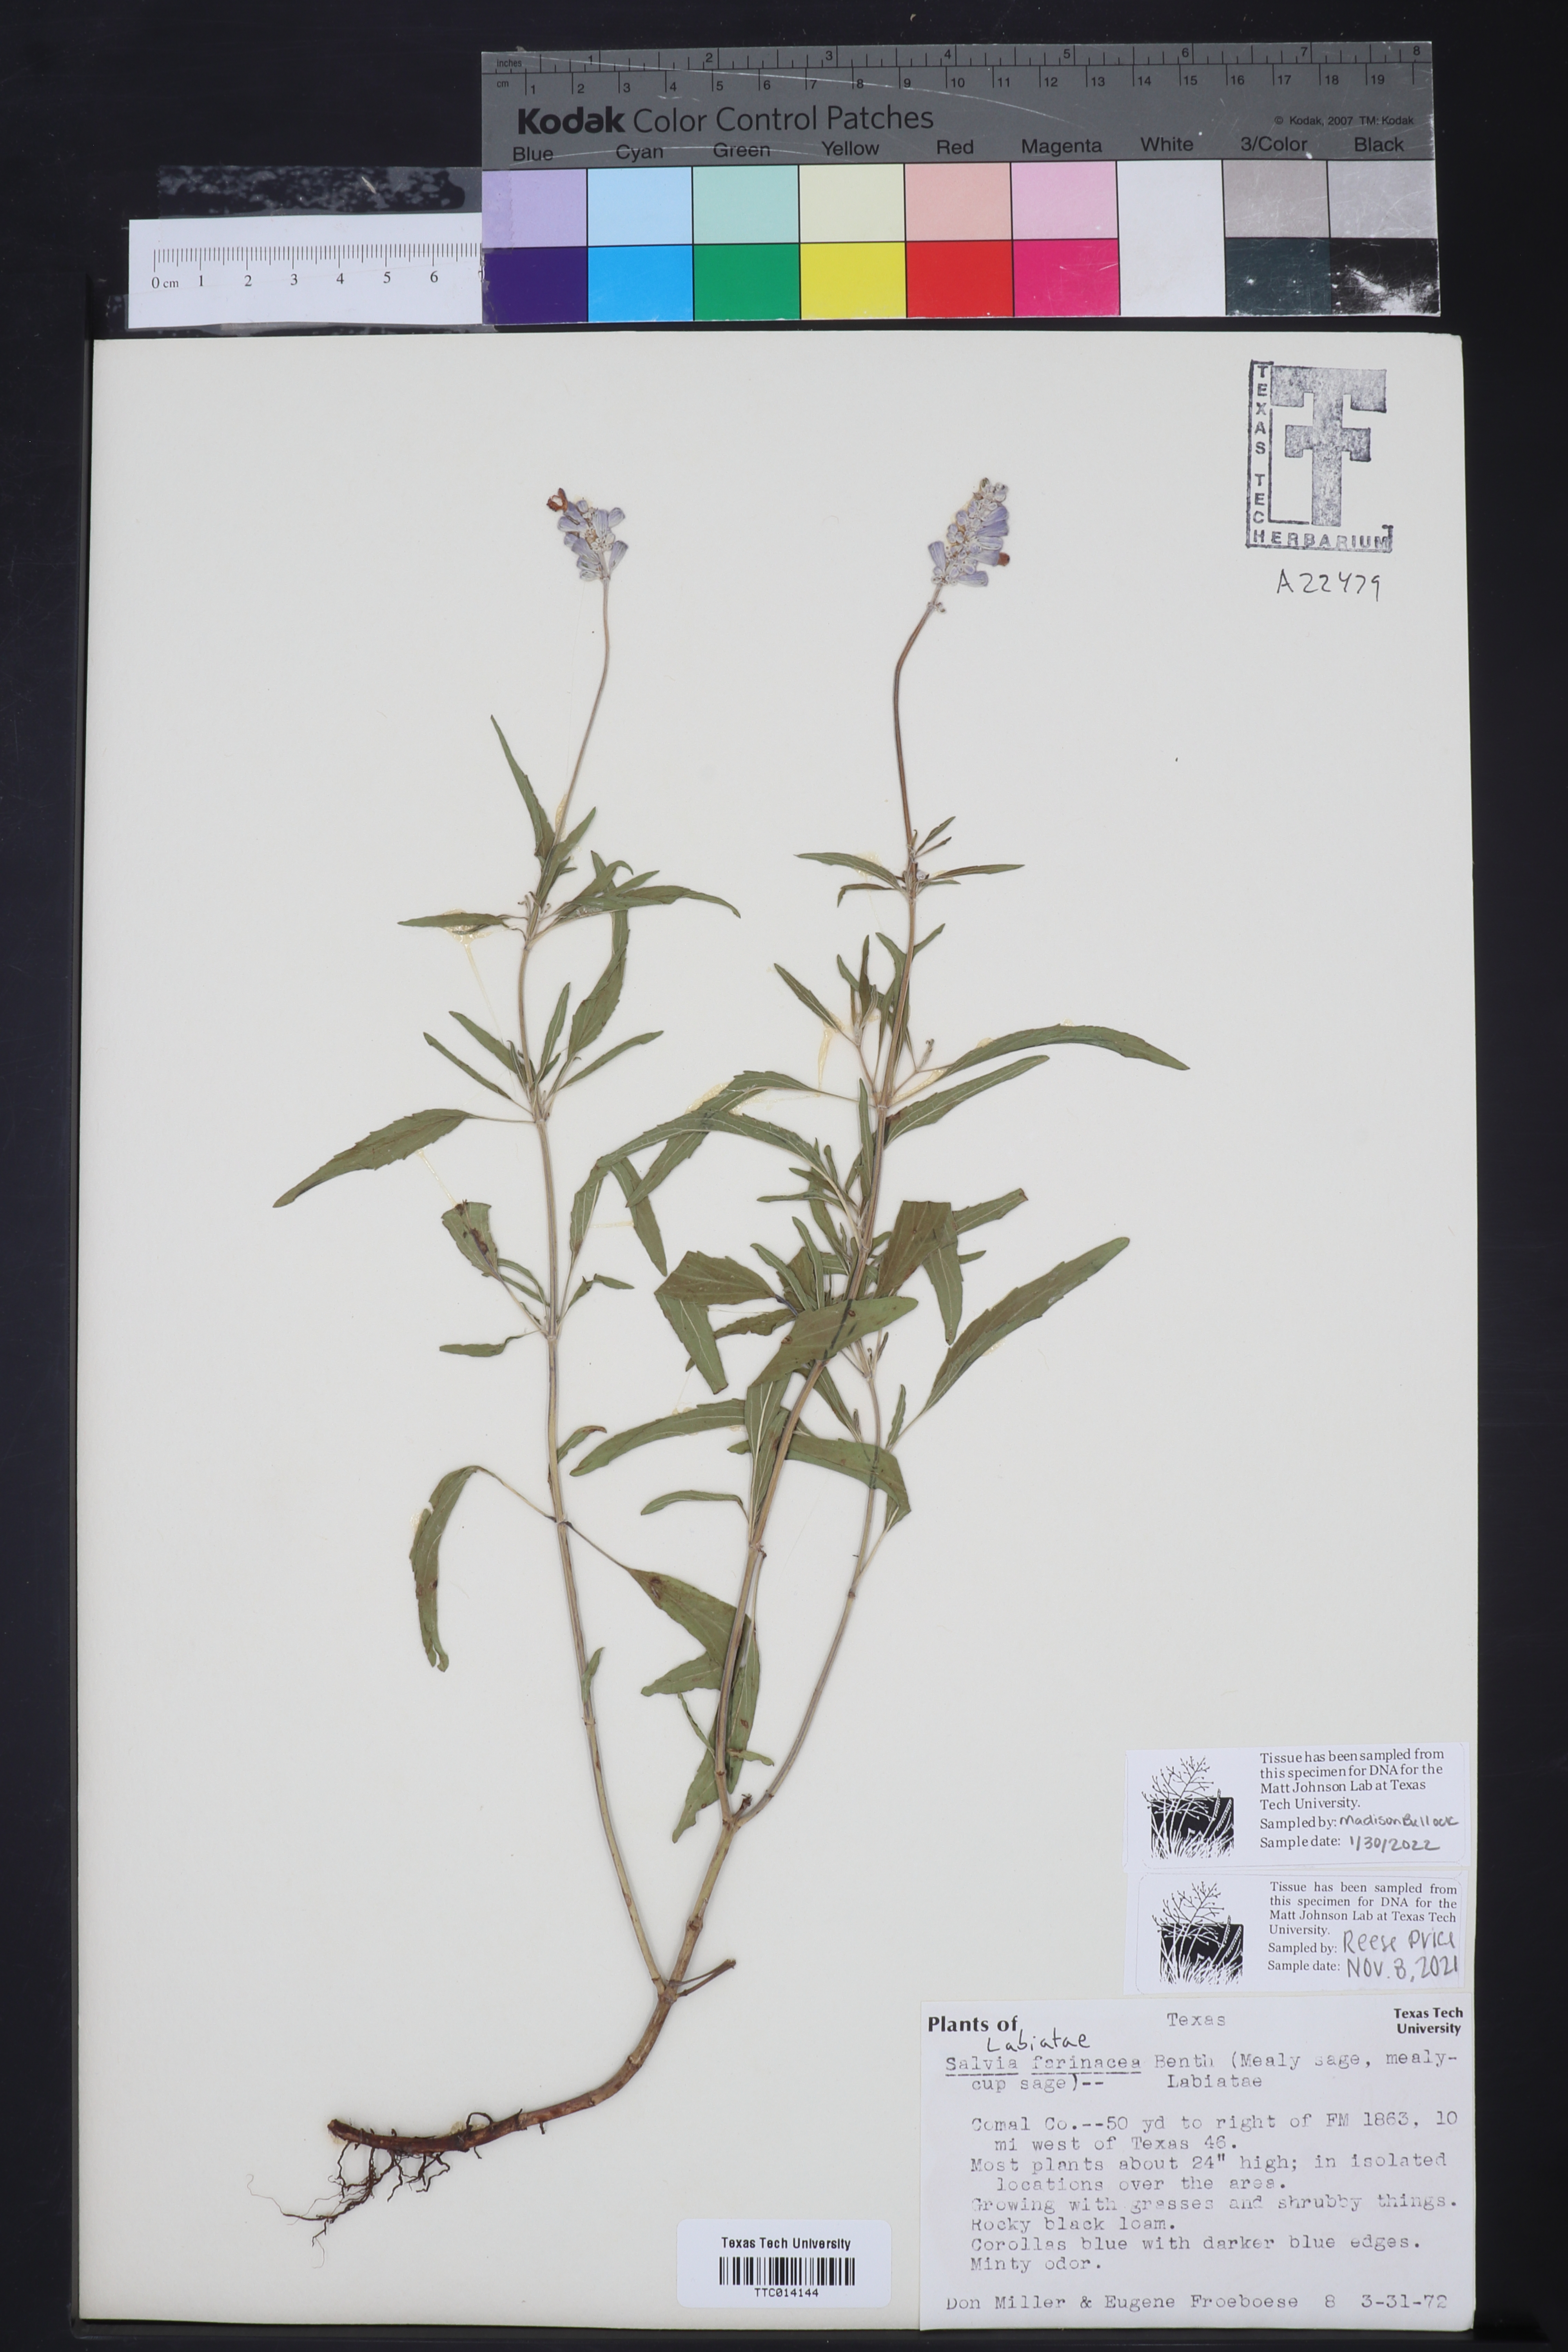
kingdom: Plantae
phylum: Tracheophyta
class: Magnoliopsida
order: Lamiales
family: Lamiaceae
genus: Salvia
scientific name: Salvia farinacea
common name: Mealy sage
